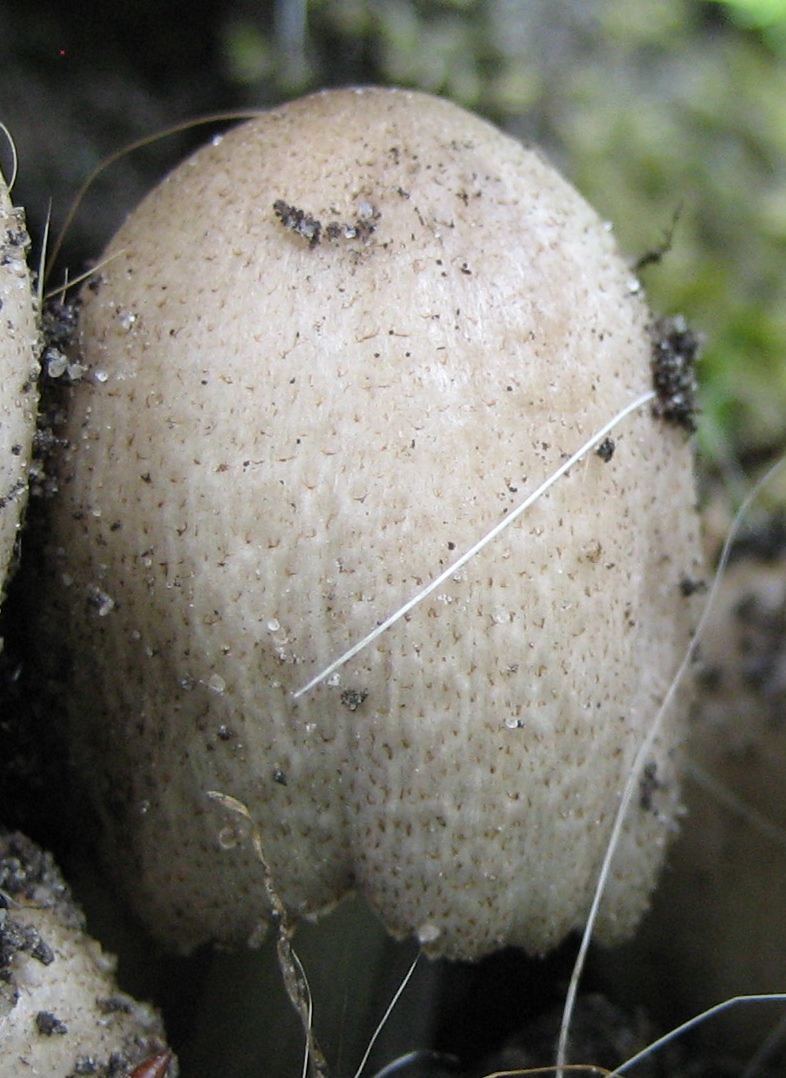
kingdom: Fungi
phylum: Basidiomycota
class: Agaricomycetes
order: Agaricales
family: Psathyrellaceae
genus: Coprinopsis
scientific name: Coprinopsis
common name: blækhat
